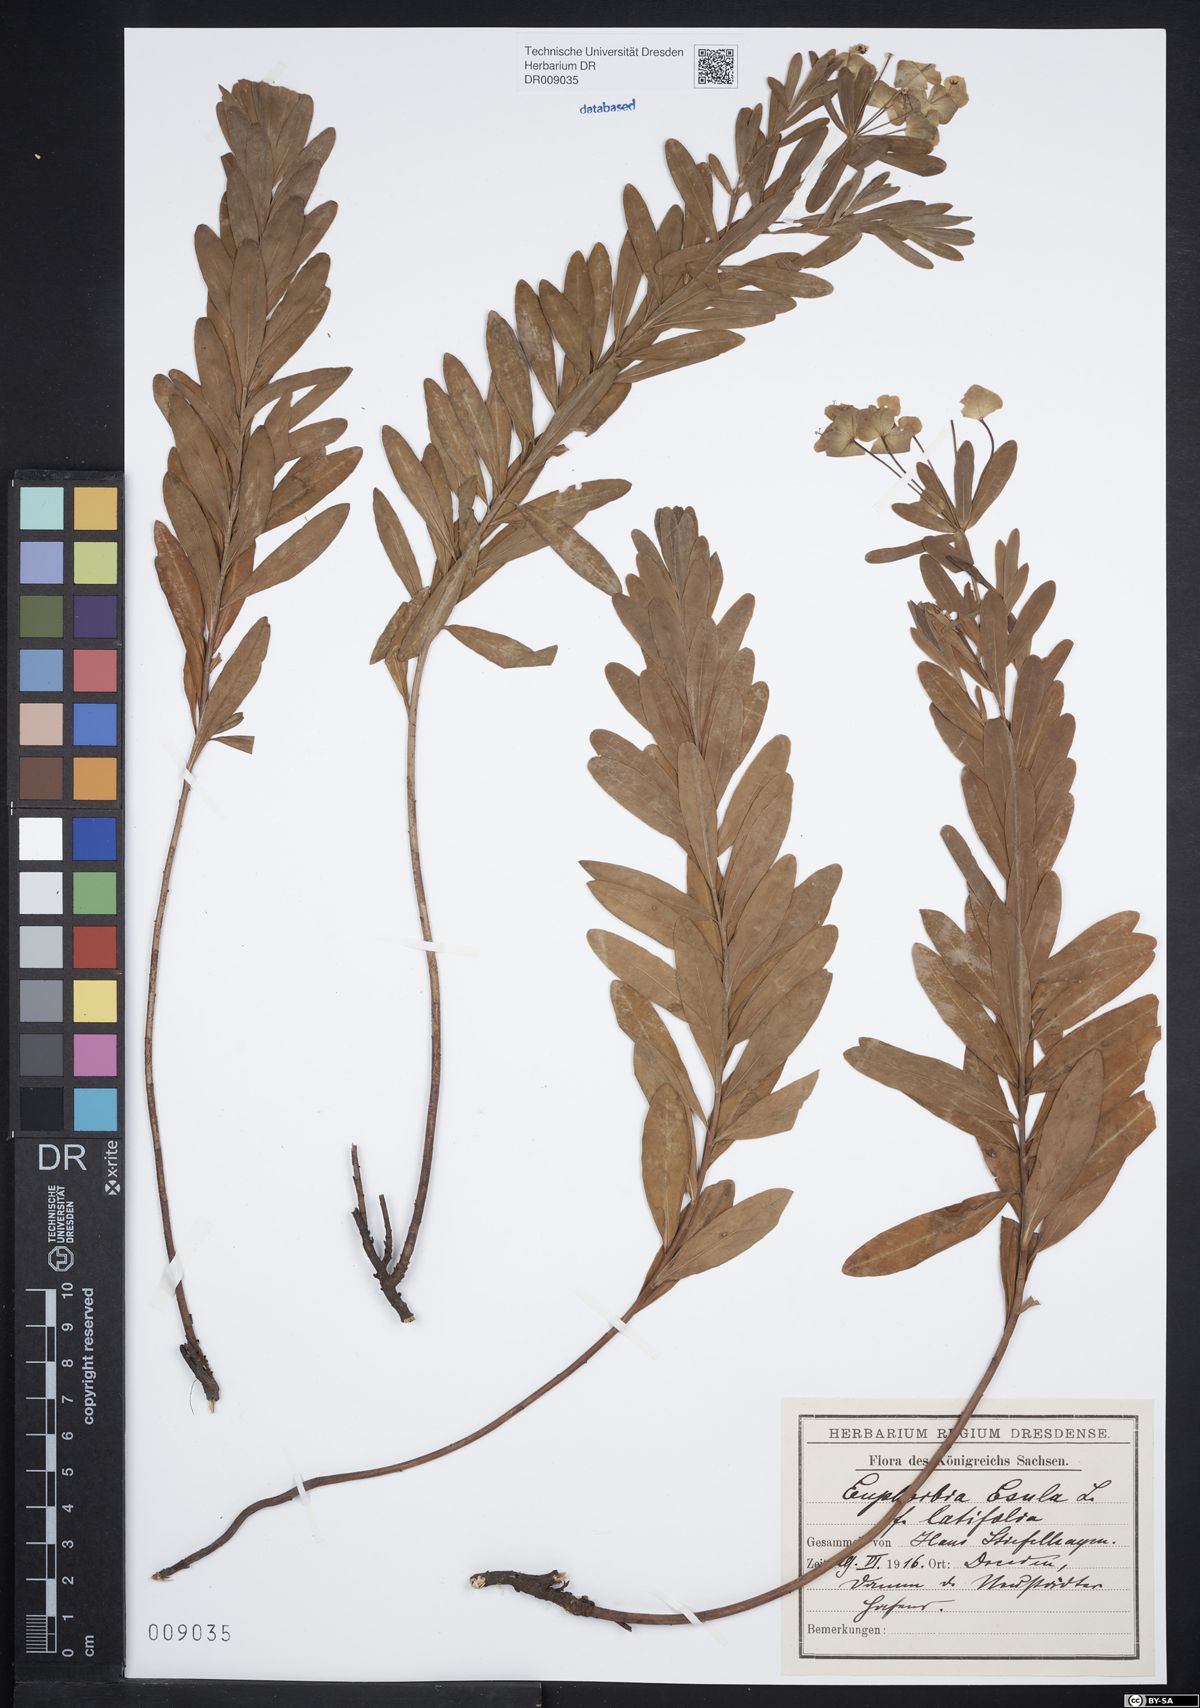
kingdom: Plantae
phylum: Tracheophyta
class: Magnoliopsida
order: Malpighiales
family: Euphorbiaceae
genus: Euphorbia
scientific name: Euphorbia esula
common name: Leafy spurge
